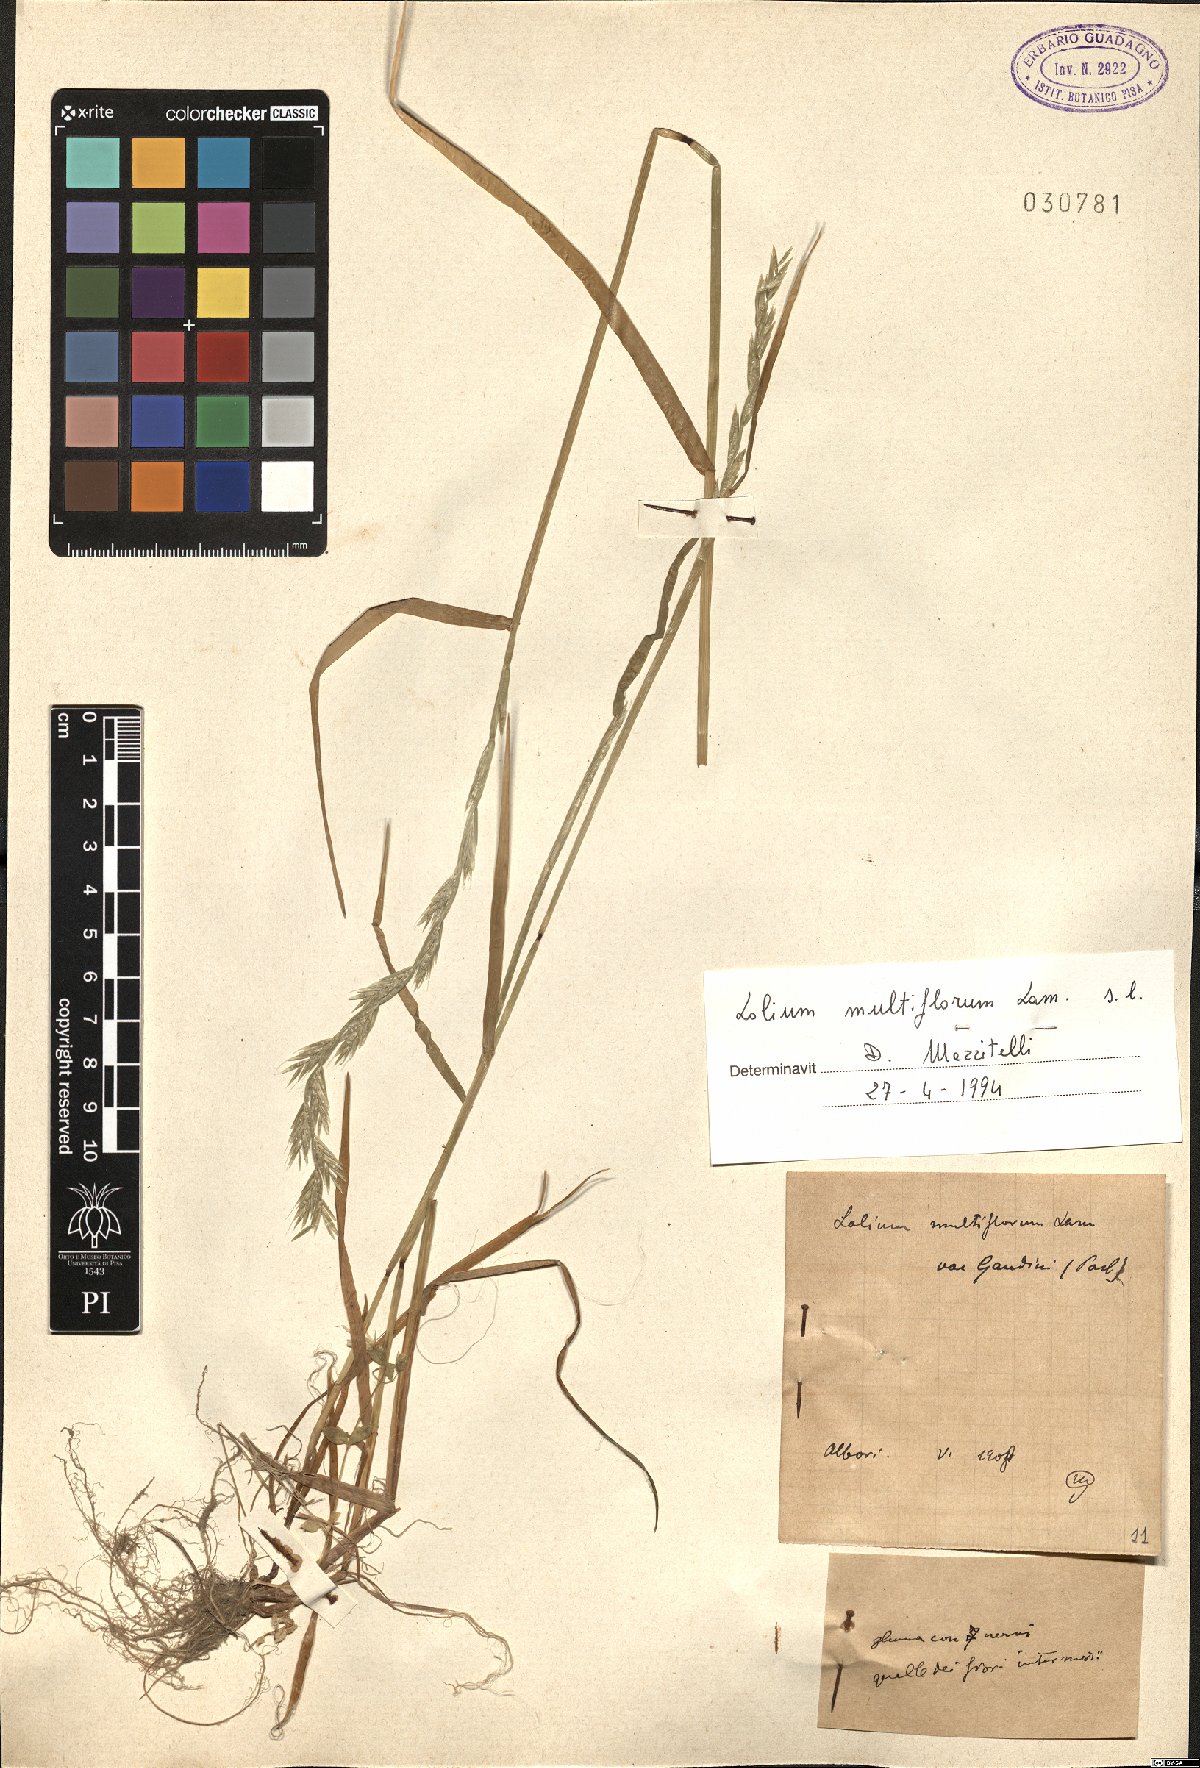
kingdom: Plantae
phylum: Tracheophyta
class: Liliopsida
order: Poales
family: Poaceae
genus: Lolium
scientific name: Lolium multiflorum
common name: Annual ryegrass
